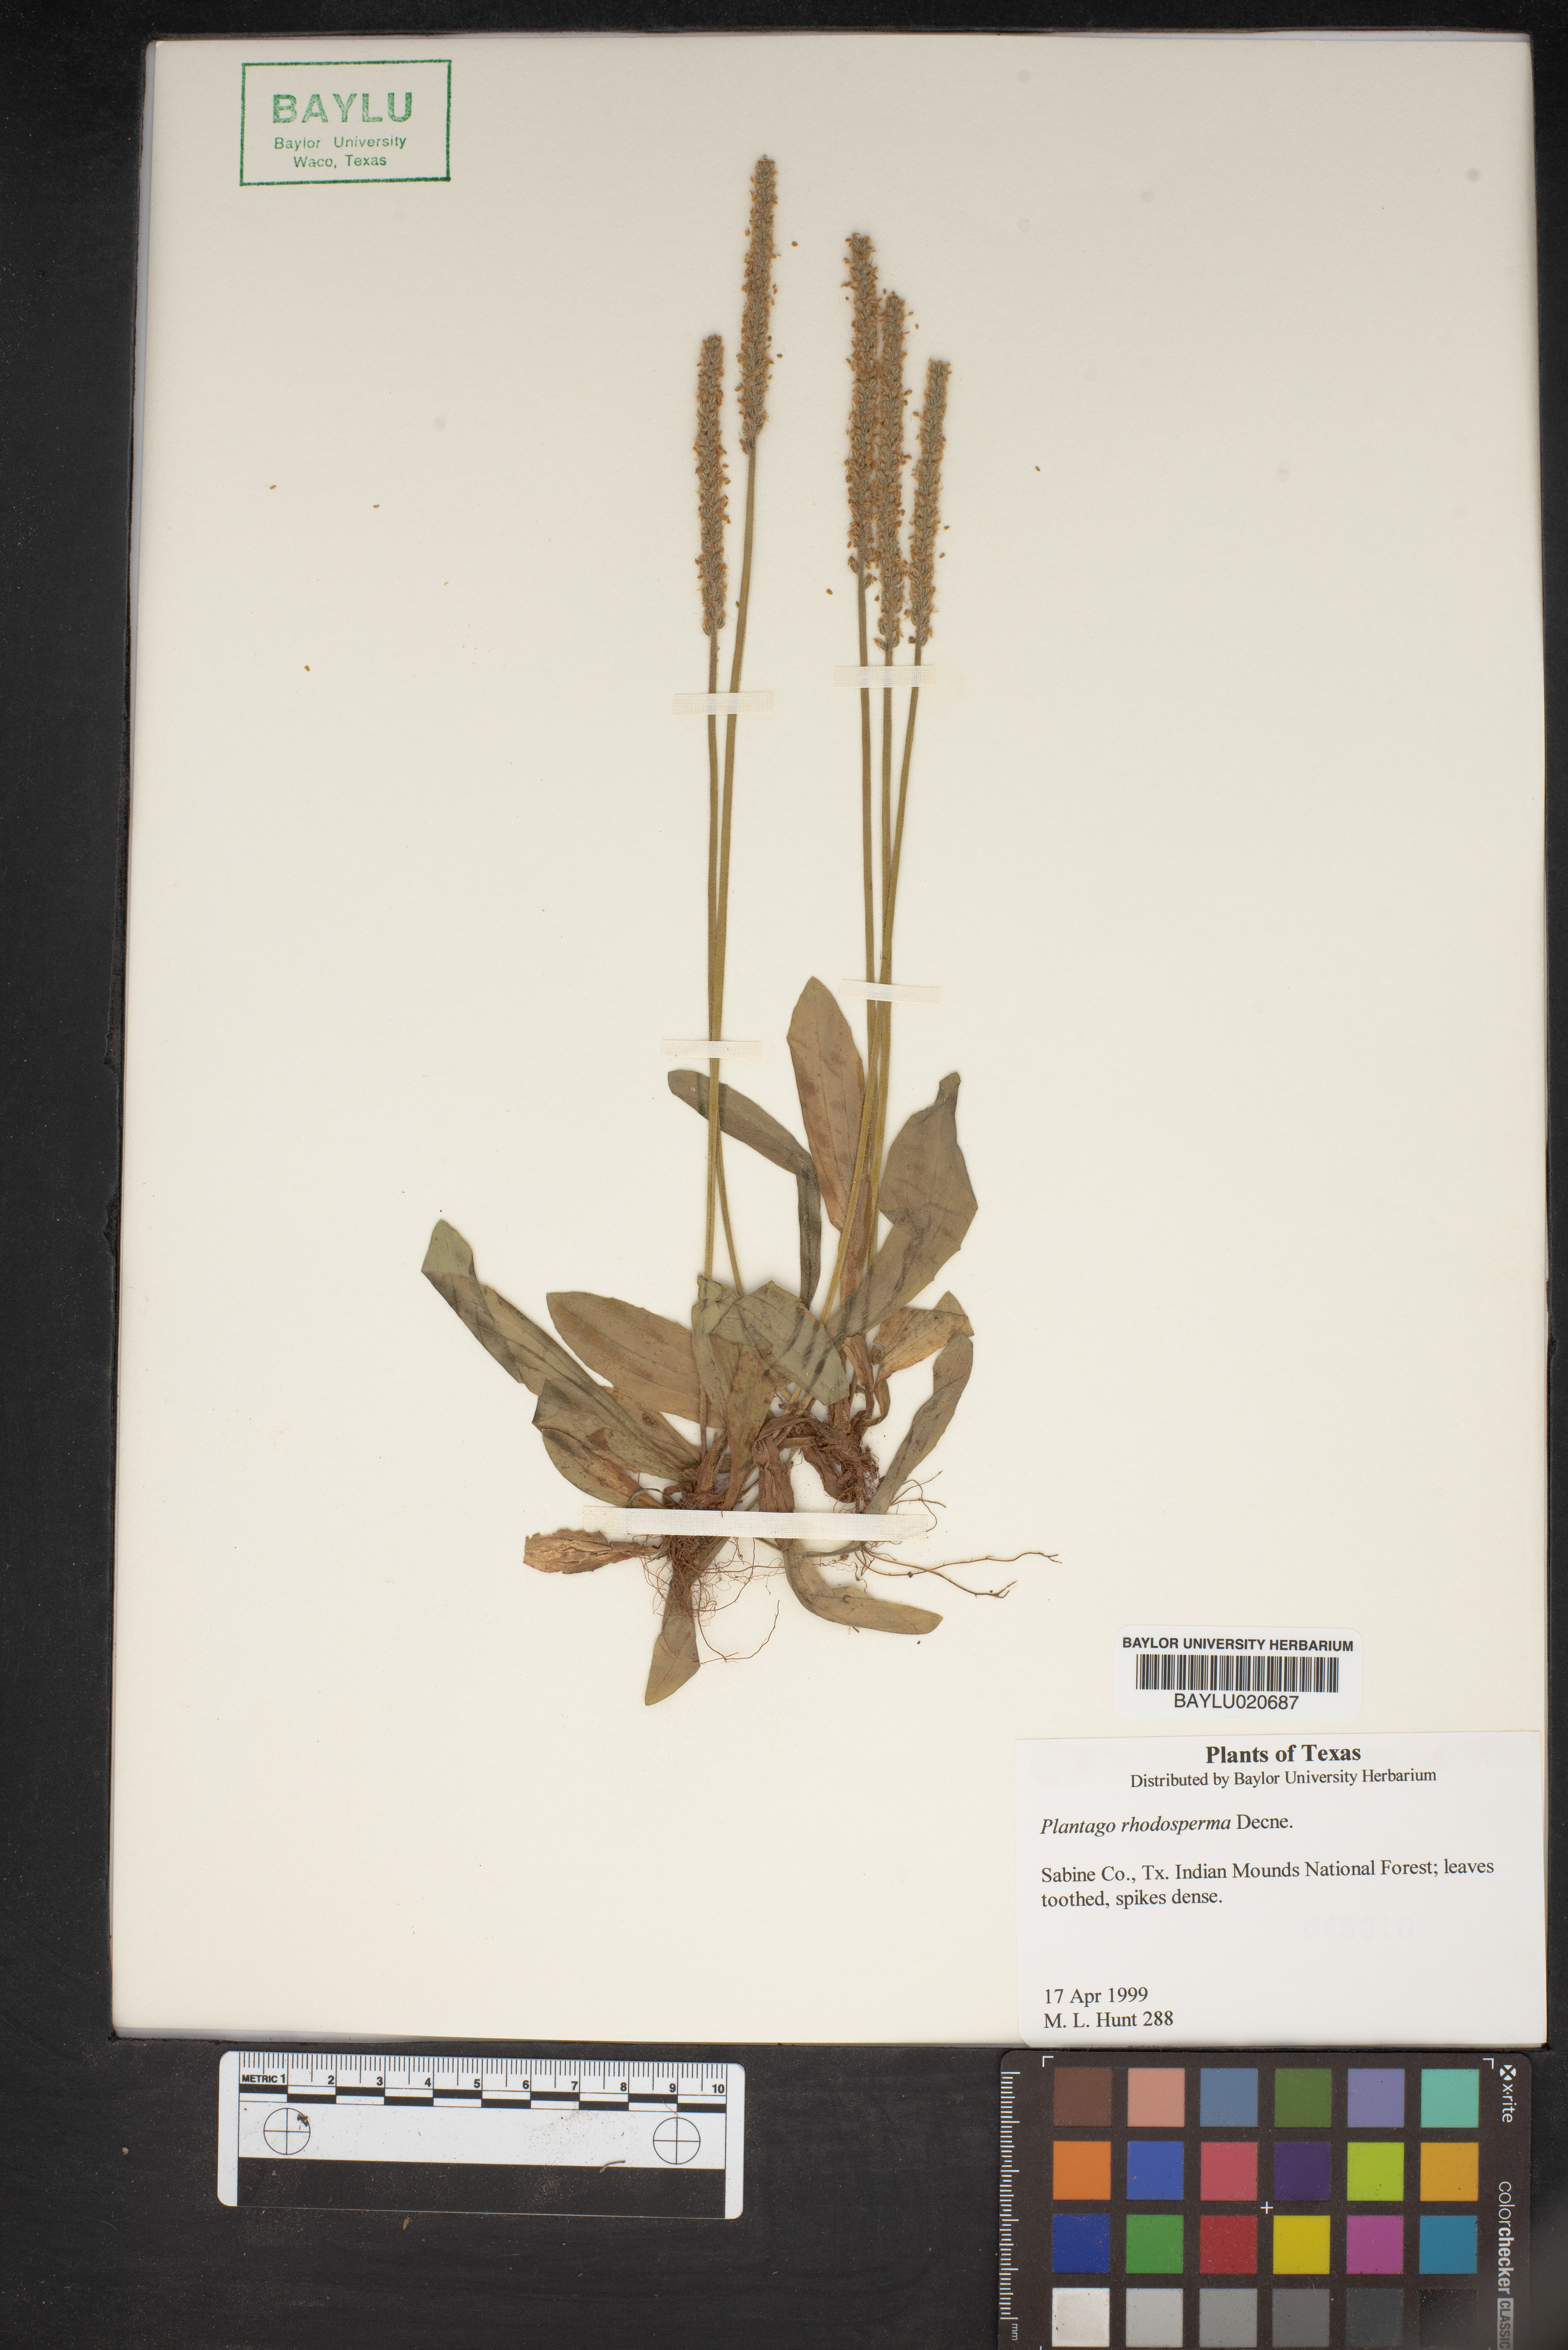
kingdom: Plantae
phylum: Tracheophyta
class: Magnoliopsida
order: Lamiales
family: Plantaginaceae
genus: Plantago
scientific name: Plantago rhodosperma
